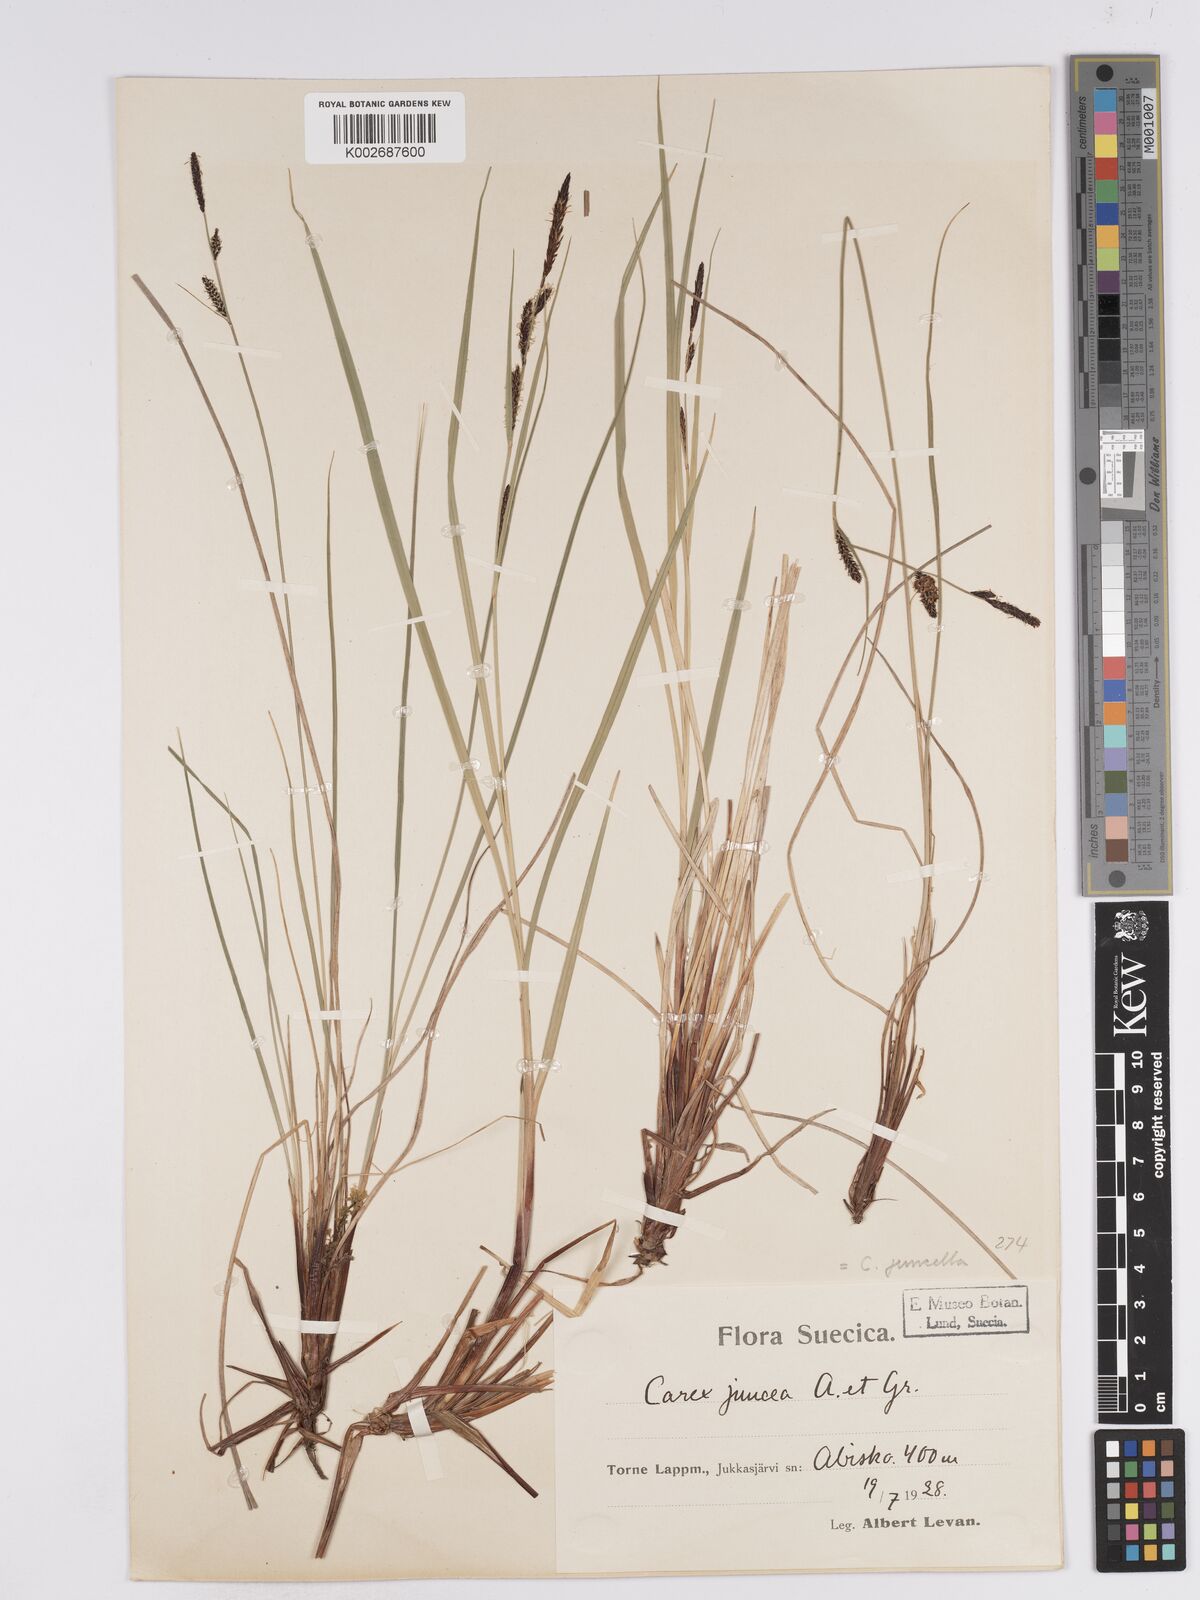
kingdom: Plantae
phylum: Tracheophyta
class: Liliopsida
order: Poales
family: Cyperaceae
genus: Carex
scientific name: Carex
